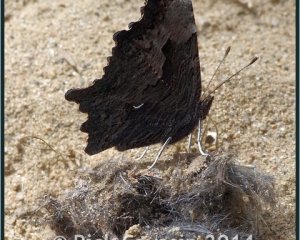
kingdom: Animalia
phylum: Arthropoda
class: Insecta
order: Lepidoptera
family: Nymphalidae
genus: Polygonia
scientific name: Polygonia progne
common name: Gray Comma
